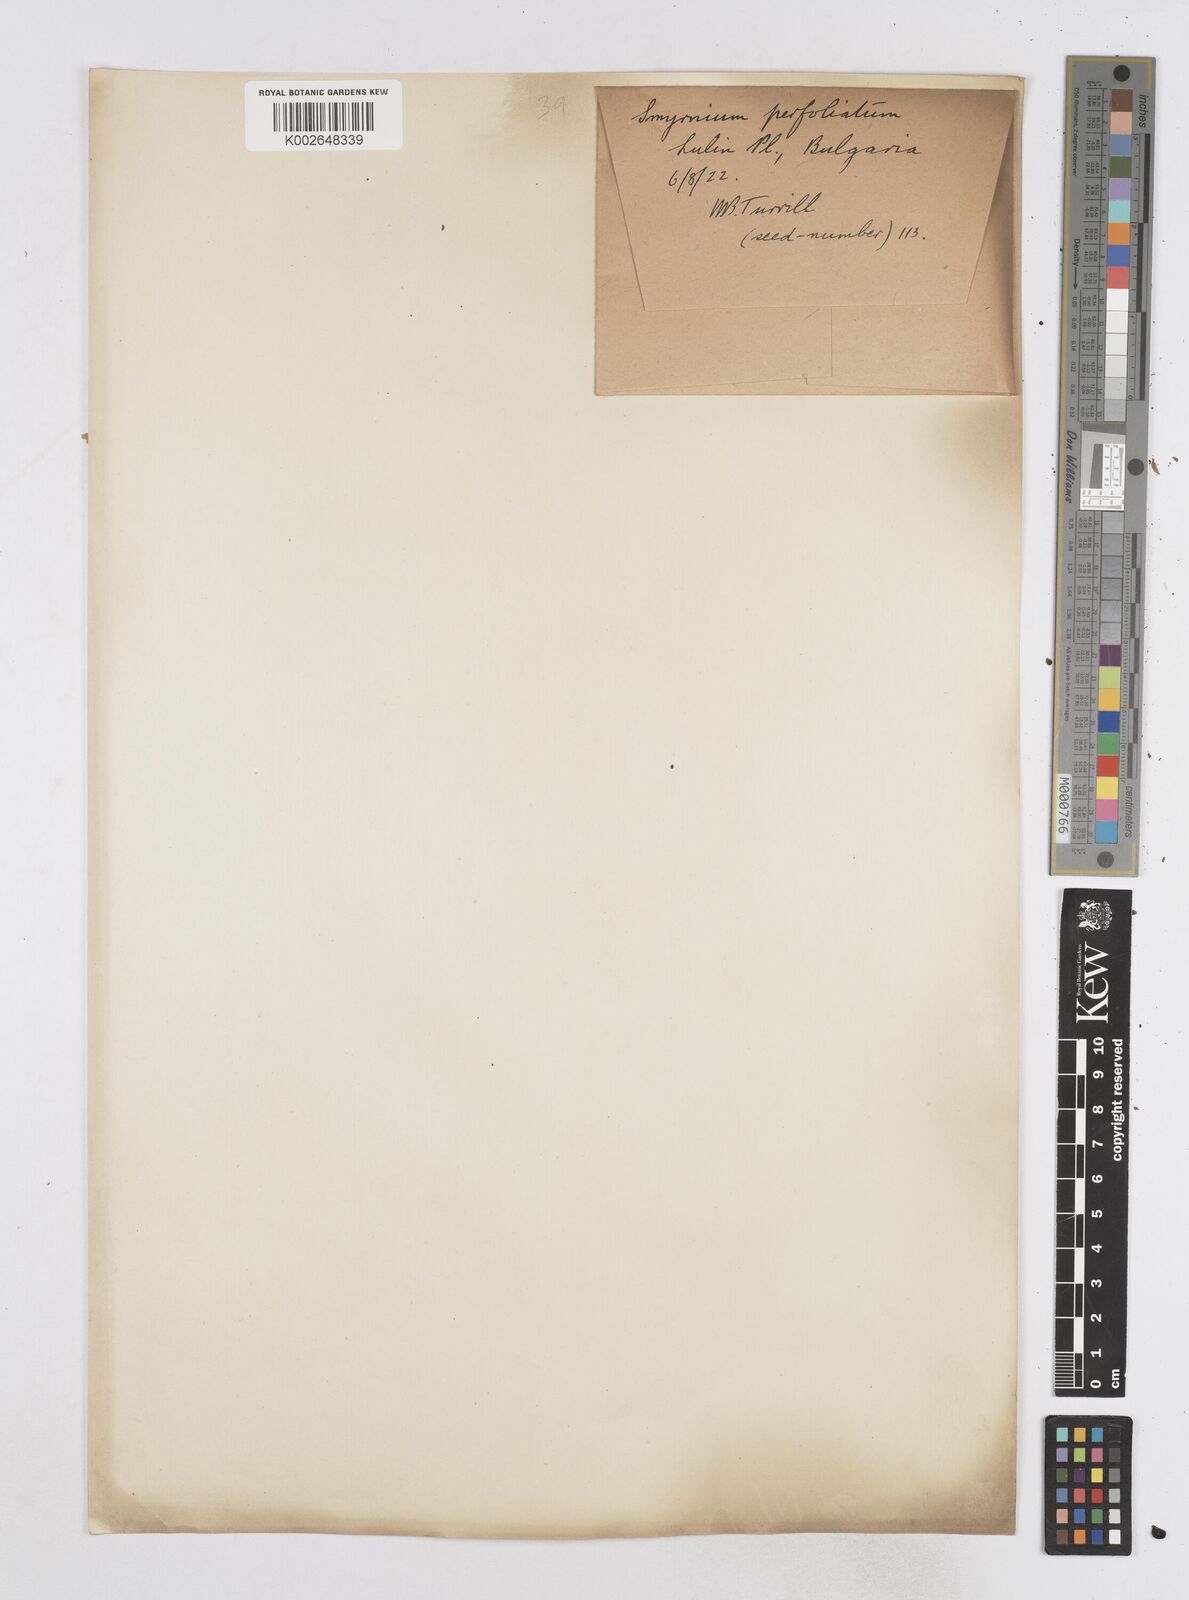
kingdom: Plantae
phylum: Tracheophyta
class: Magnoliopsida
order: Apiales
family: Apiaceae
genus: Smyrnium
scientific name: Smyrnium perfoliatum
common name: Perfoliate alexanders
